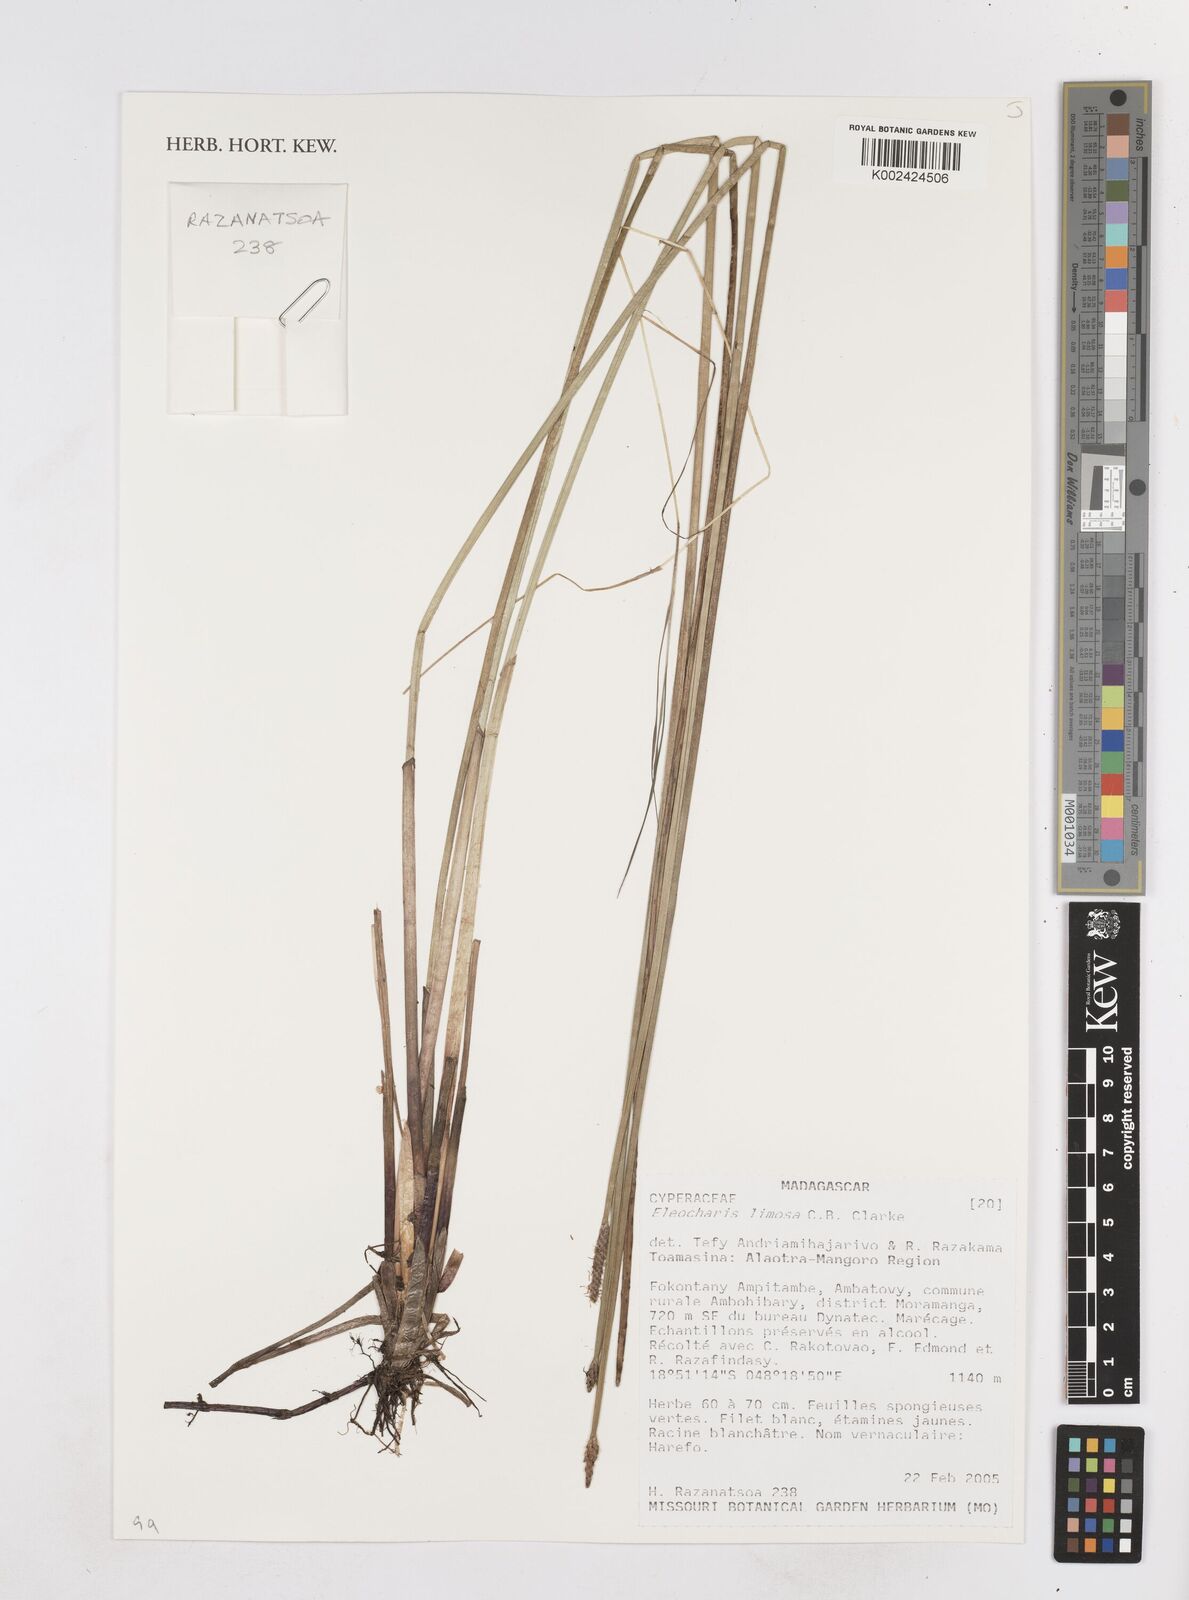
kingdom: Plantae
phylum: Tracheophyta
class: Liliopsida
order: Poales
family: Cyperaceae
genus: Eleocharis
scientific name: Eleocharis limosa
